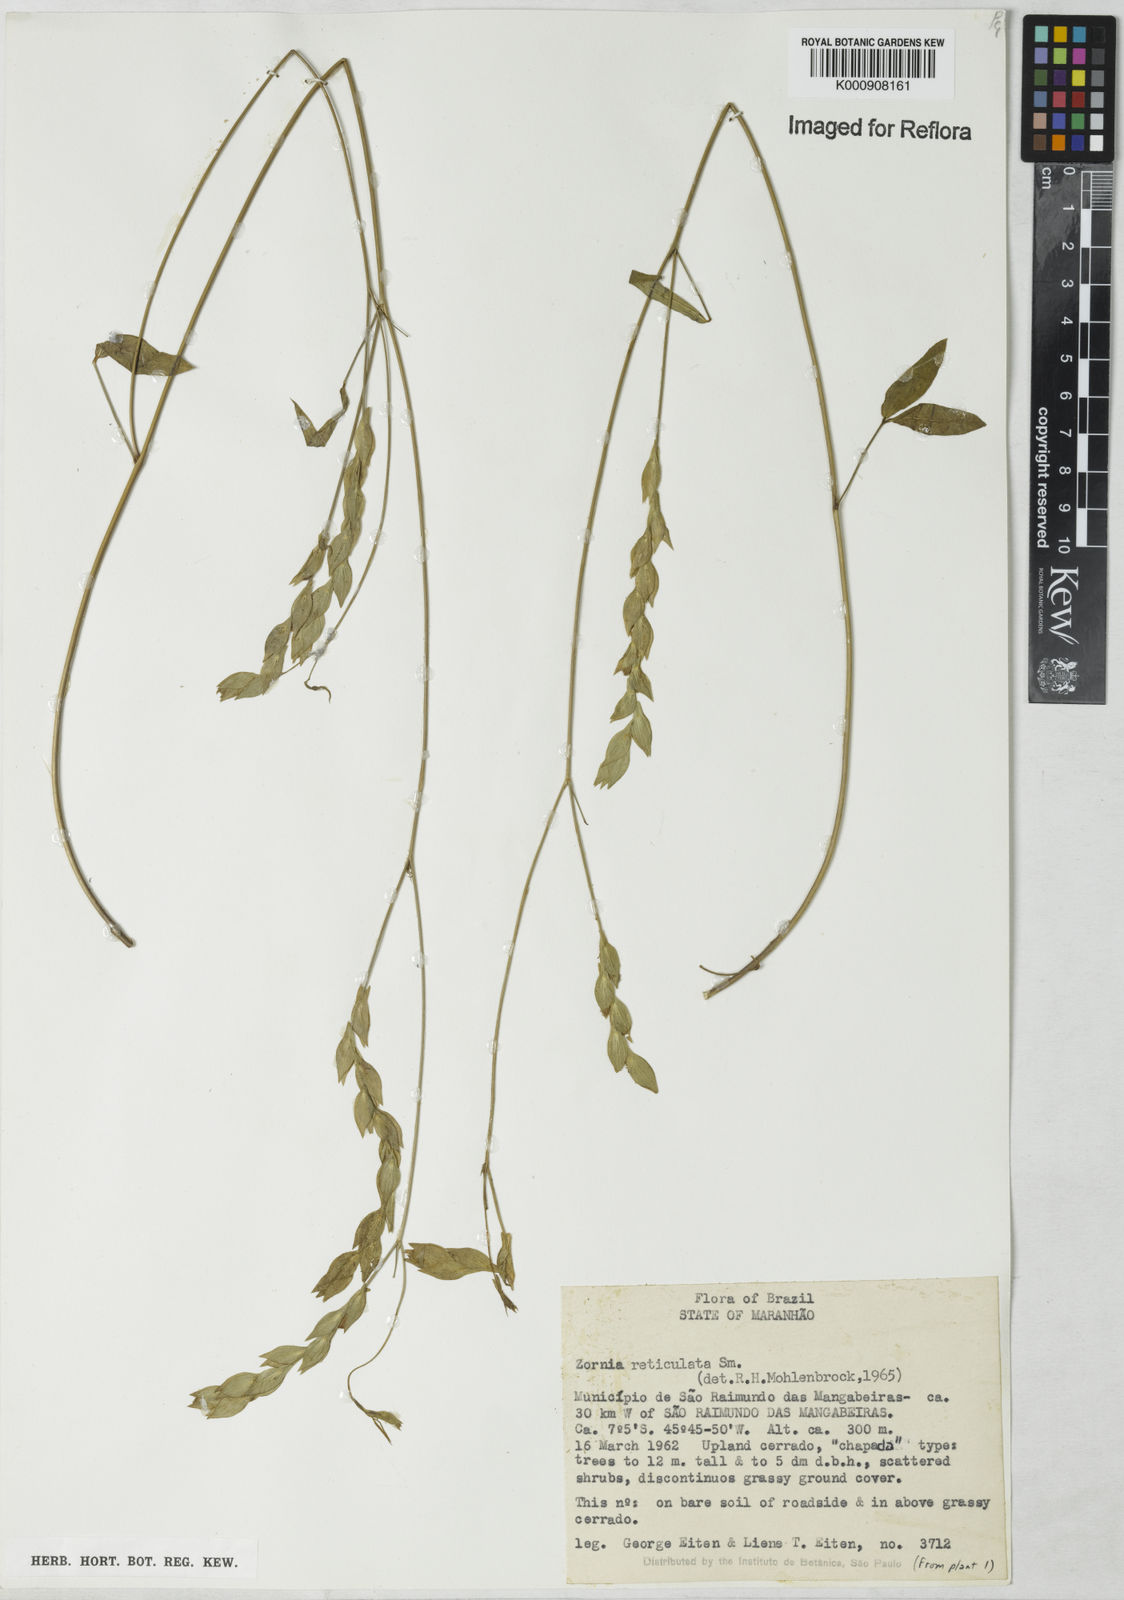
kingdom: Plantae
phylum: Tracheophyta
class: Magnoliopsida
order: Fabales
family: Fabaceae
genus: Zornia
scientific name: Zornia reticulata
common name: Reticulate viperina
